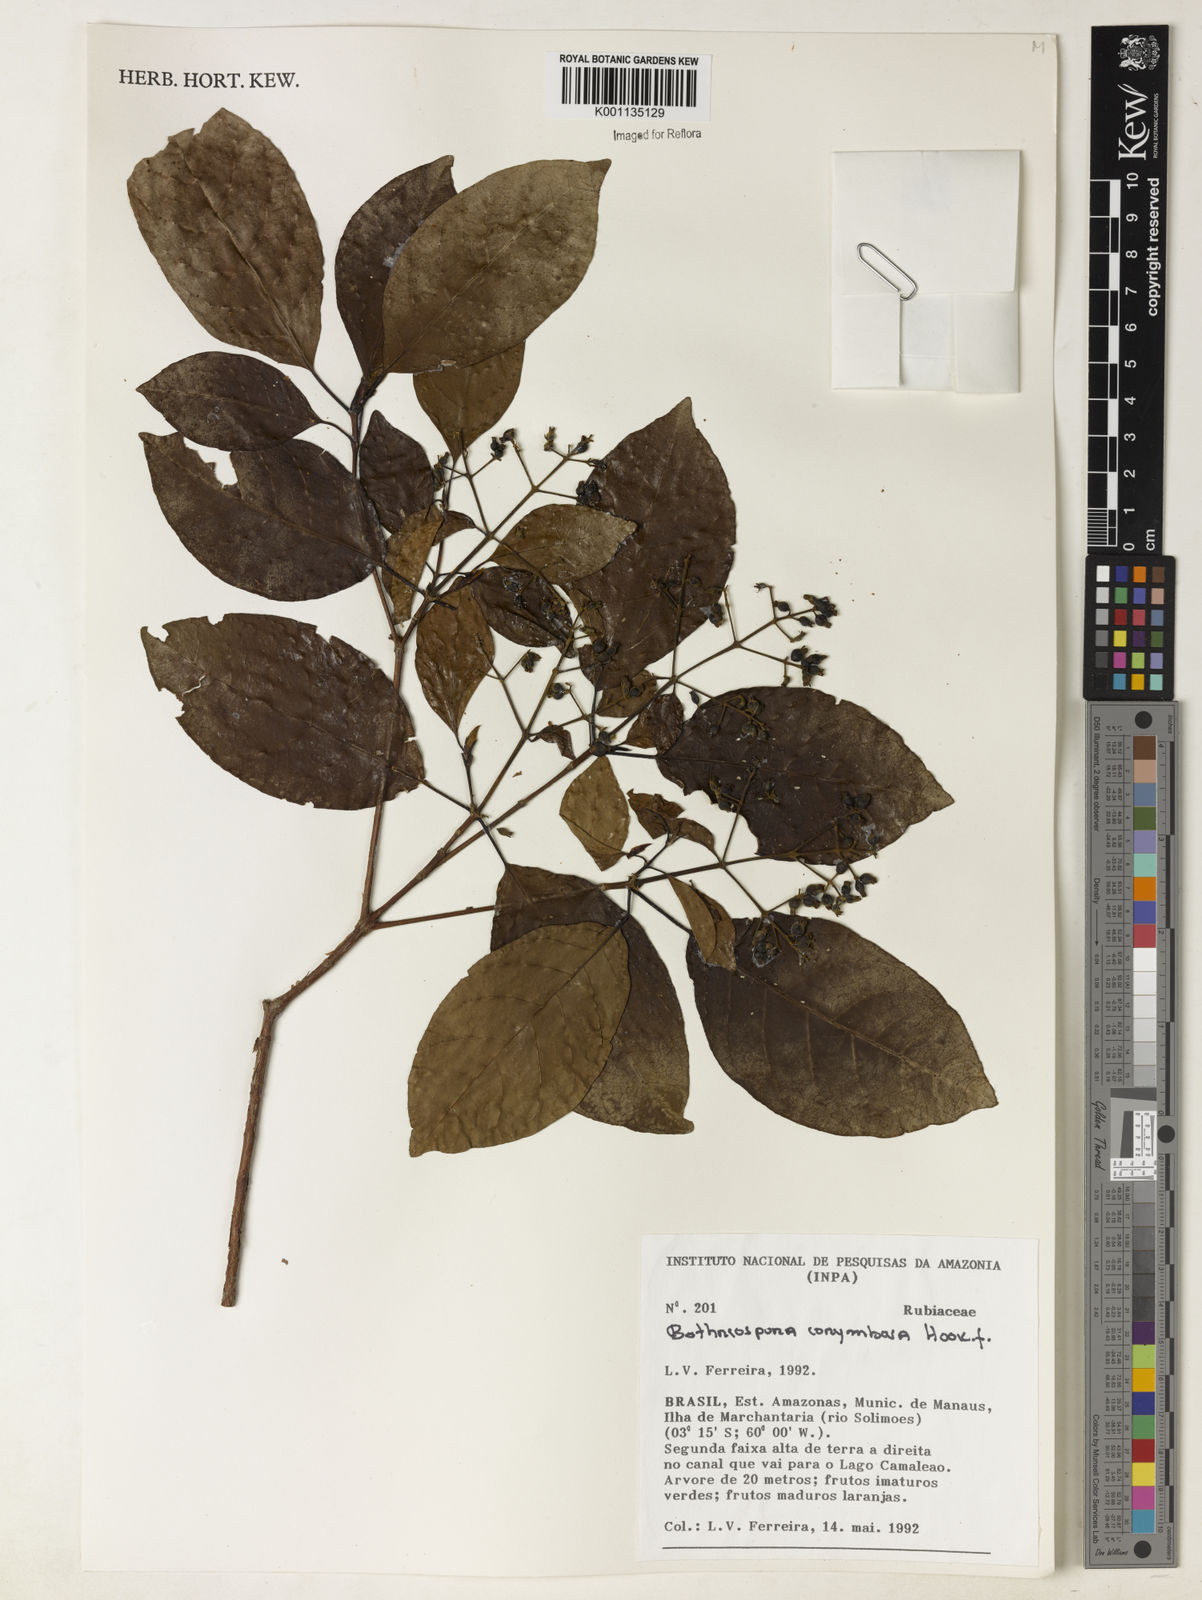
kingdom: Plantae
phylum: Tracheophyta
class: Magnoliopsida
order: Gentianales
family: Rubiaceae
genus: Bothriospora
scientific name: Bothriospora corymbosa
